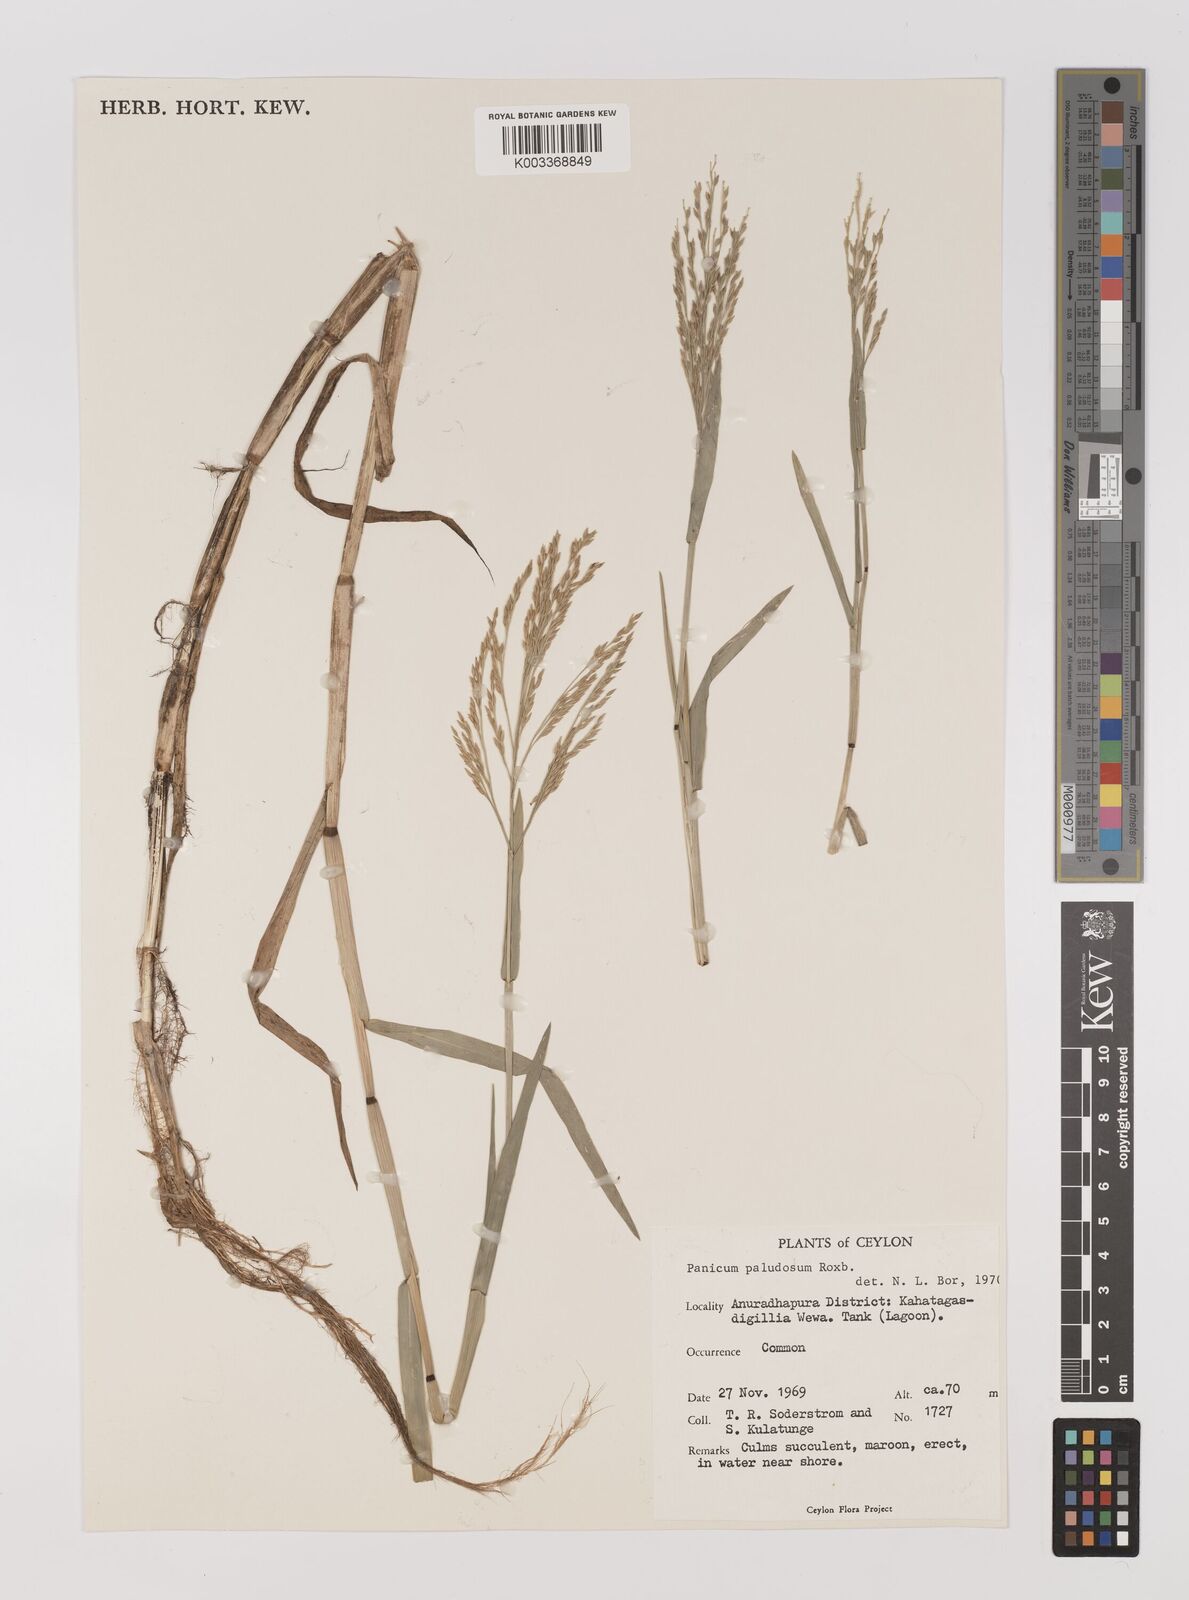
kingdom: Plantae
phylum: Tracheophyta
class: Liliopsida
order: Poales
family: Poaceae
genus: Louisiella
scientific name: Louisiella paludosa
